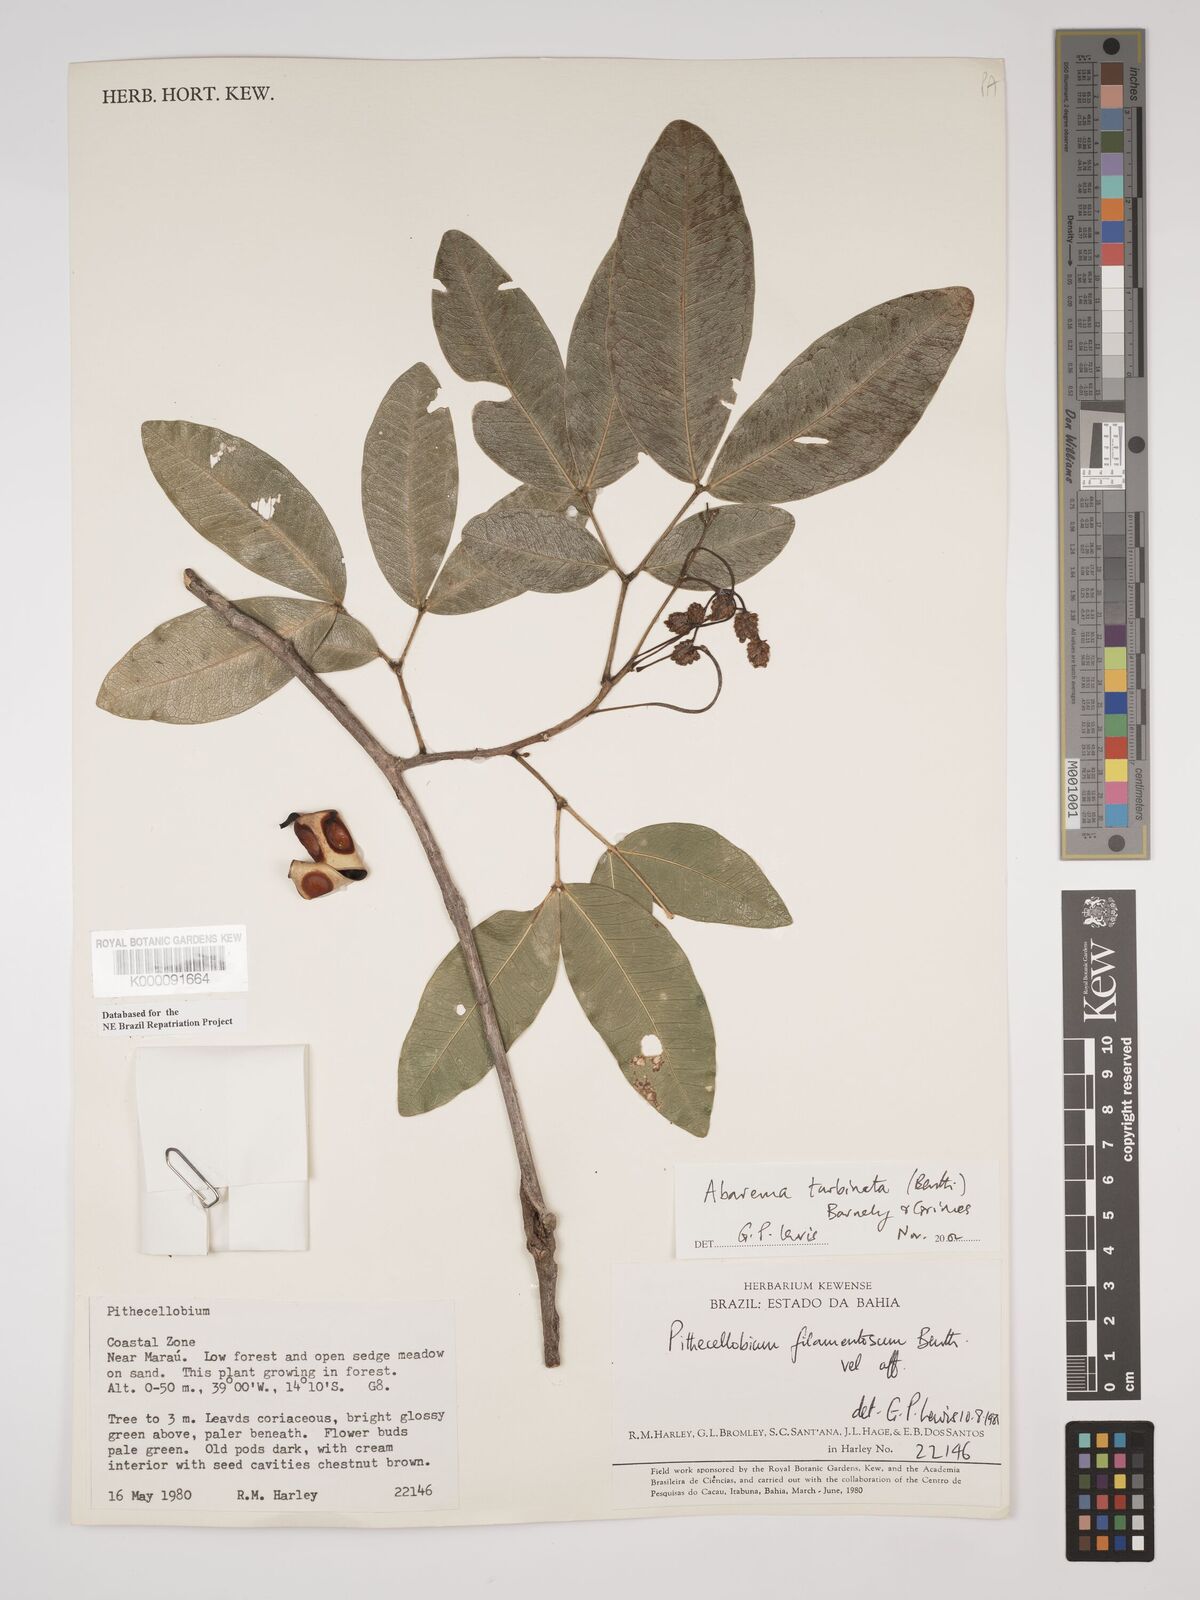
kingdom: Plantae
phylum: Tracheophyta
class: Magnoliopsida
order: Fabales
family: Fabaceae
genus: Jupunba
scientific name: Jupunba turbinata
